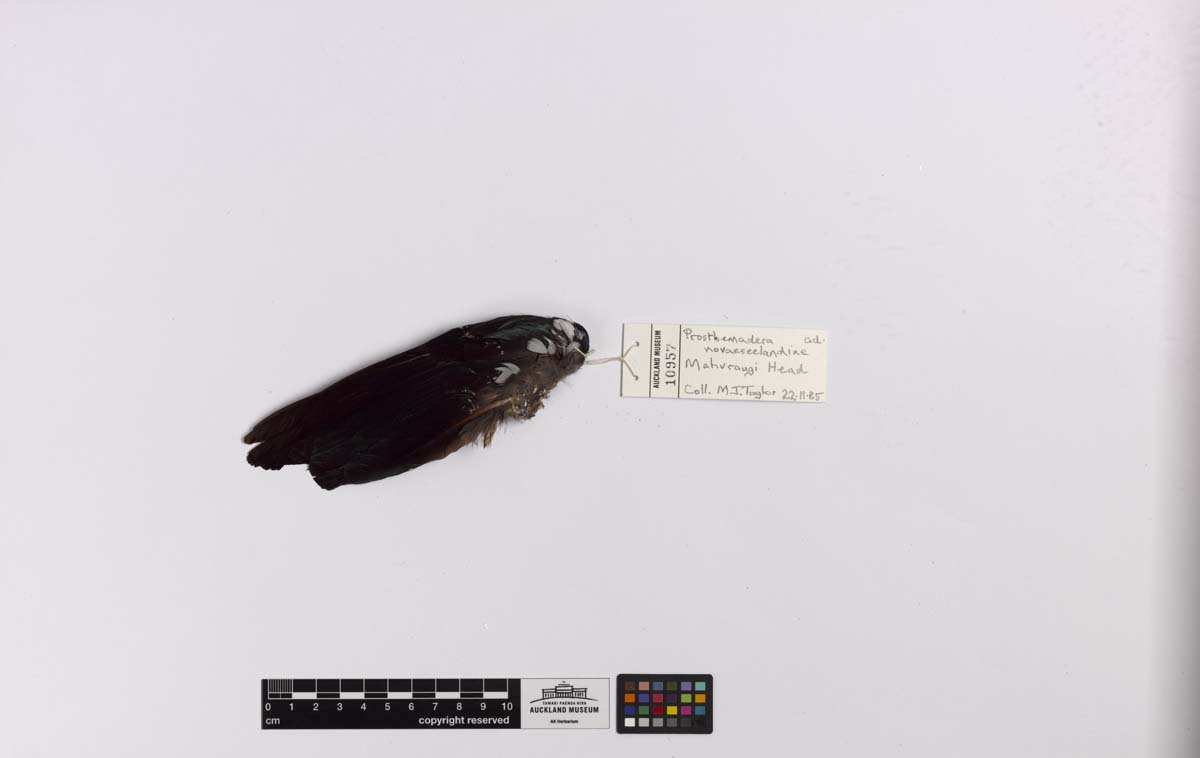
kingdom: Animalia
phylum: Chordata
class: Aves
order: Passeriformes
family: Meliphagidae
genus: Prosthemadera
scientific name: Prosthemadera novaeseelandiae
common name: Tui
